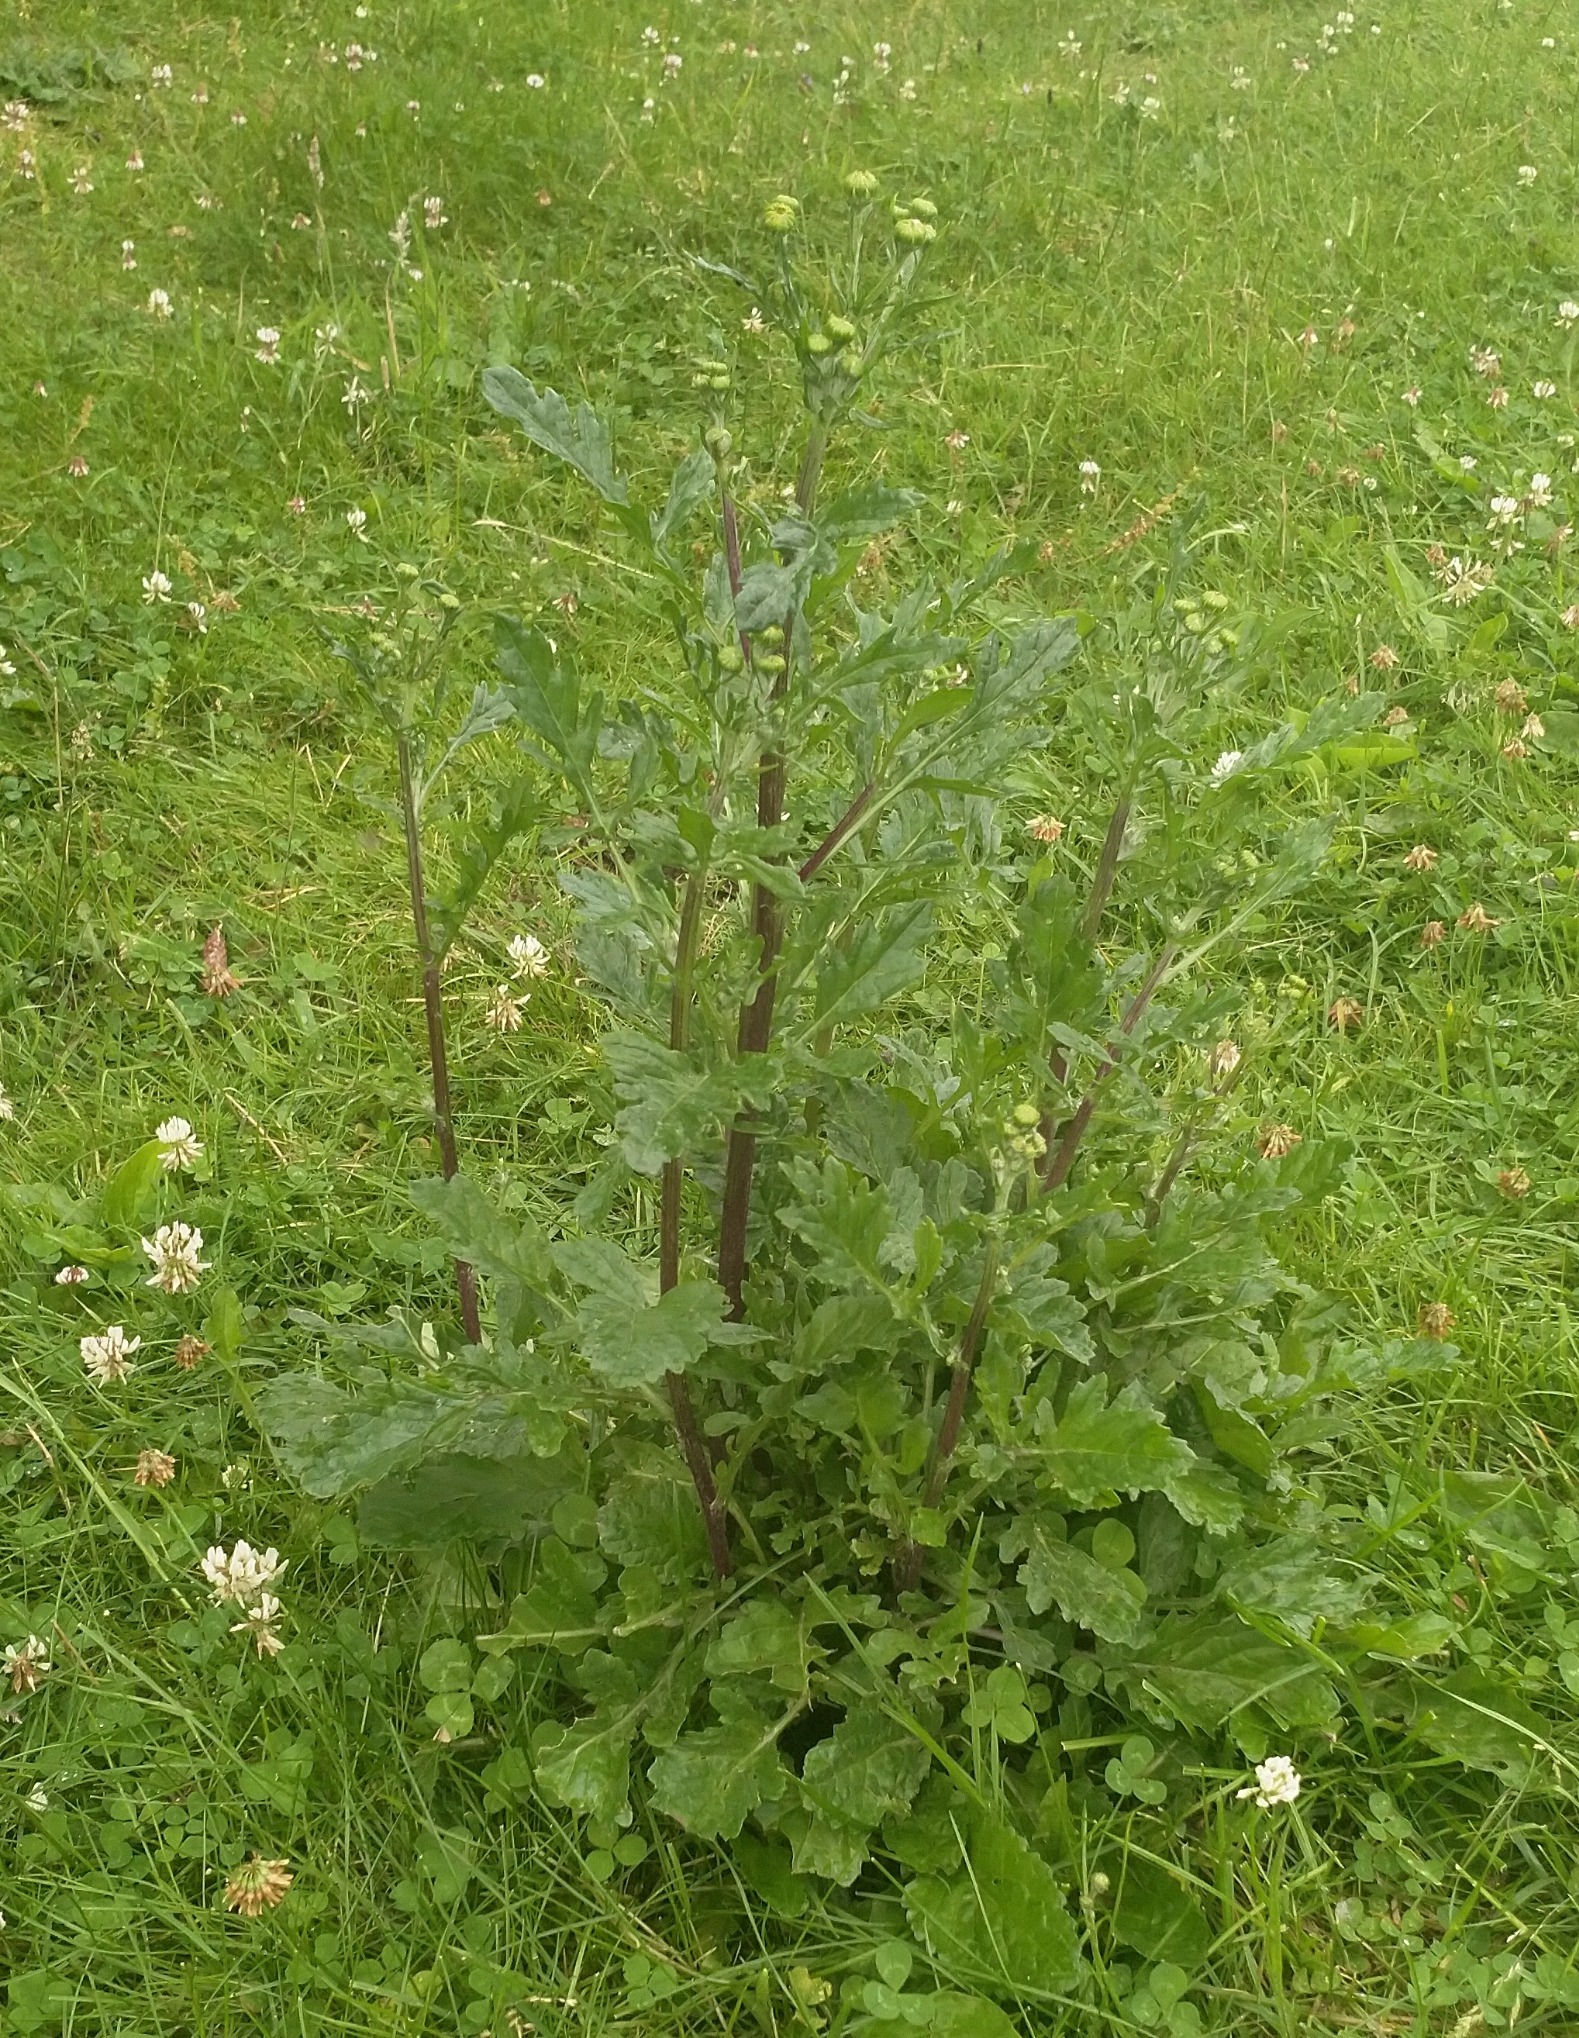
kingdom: Plantae
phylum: Tracheophyta
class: Magnoliopsida
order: Asterales
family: Asteraceae
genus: Jacobaea
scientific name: Jacobaea vulgaris
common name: Eng-brandbæger
